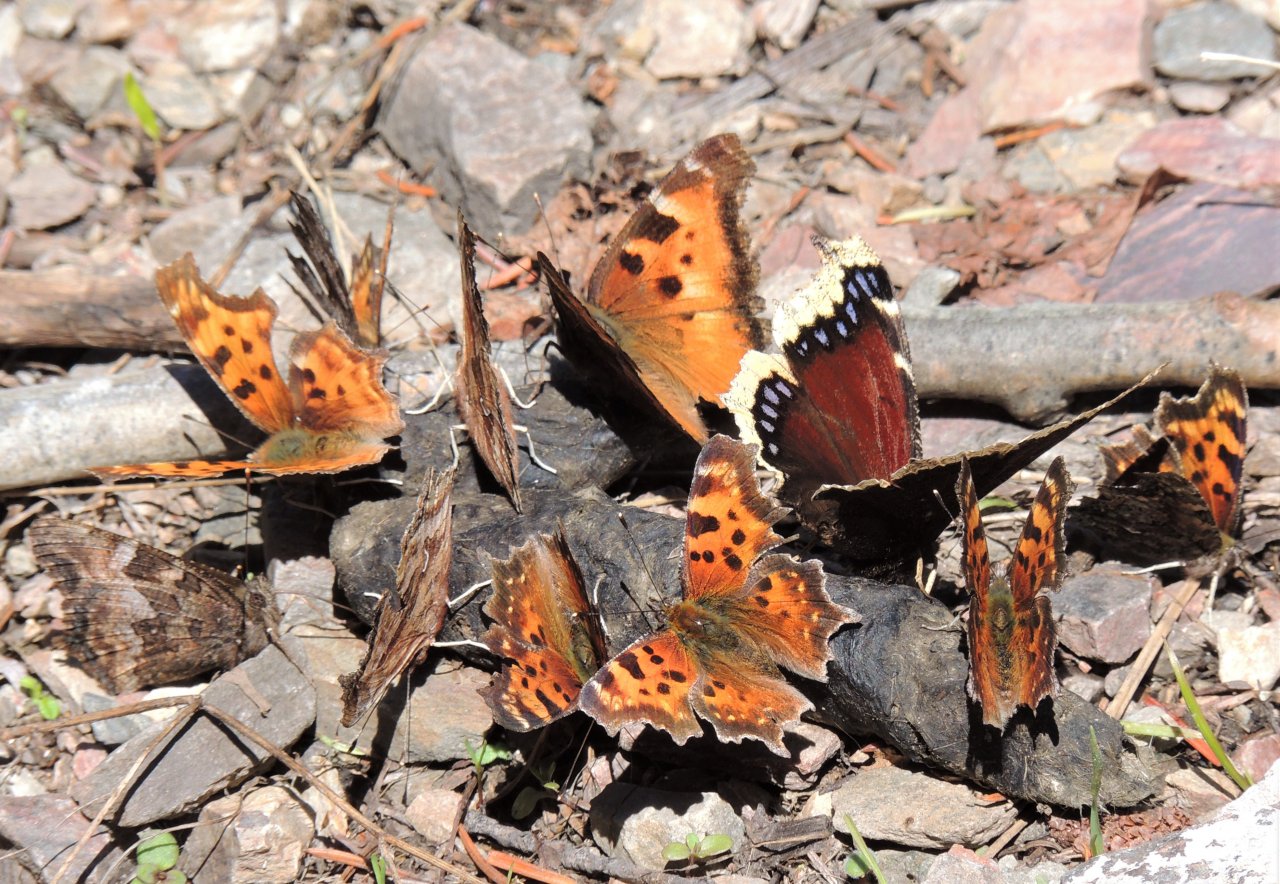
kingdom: Animalia
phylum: Arthropoda
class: Insecta
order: Lepidoptera
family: Nymphalidae
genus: Nymphalis
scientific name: Nymphalis antiopa
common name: Mourning Cloak
